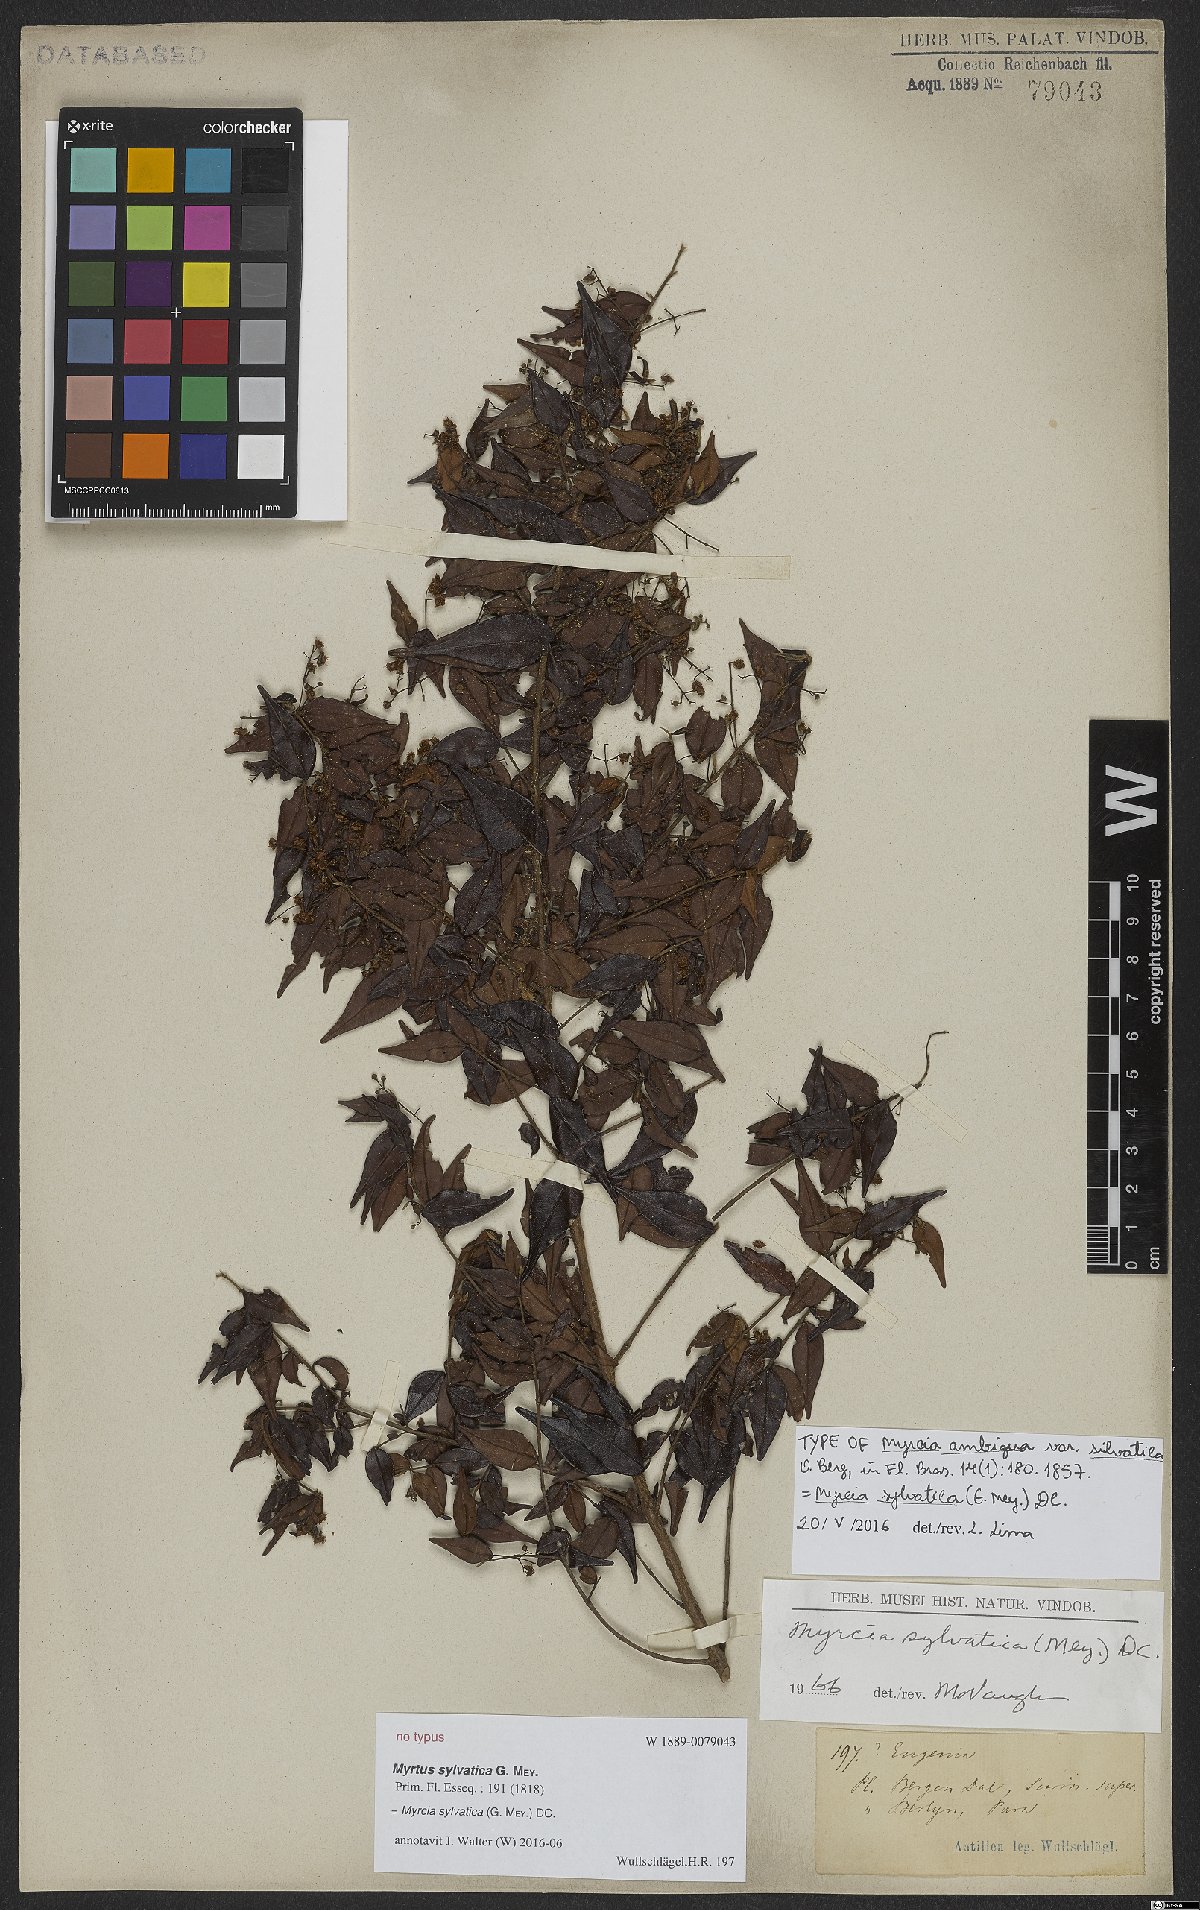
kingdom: Plantae
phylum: Tracheophyta
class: Magnoliopsida
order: Myrtales
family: Myrtaceae
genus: Myrcia
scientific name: Myrcia sylvatica
